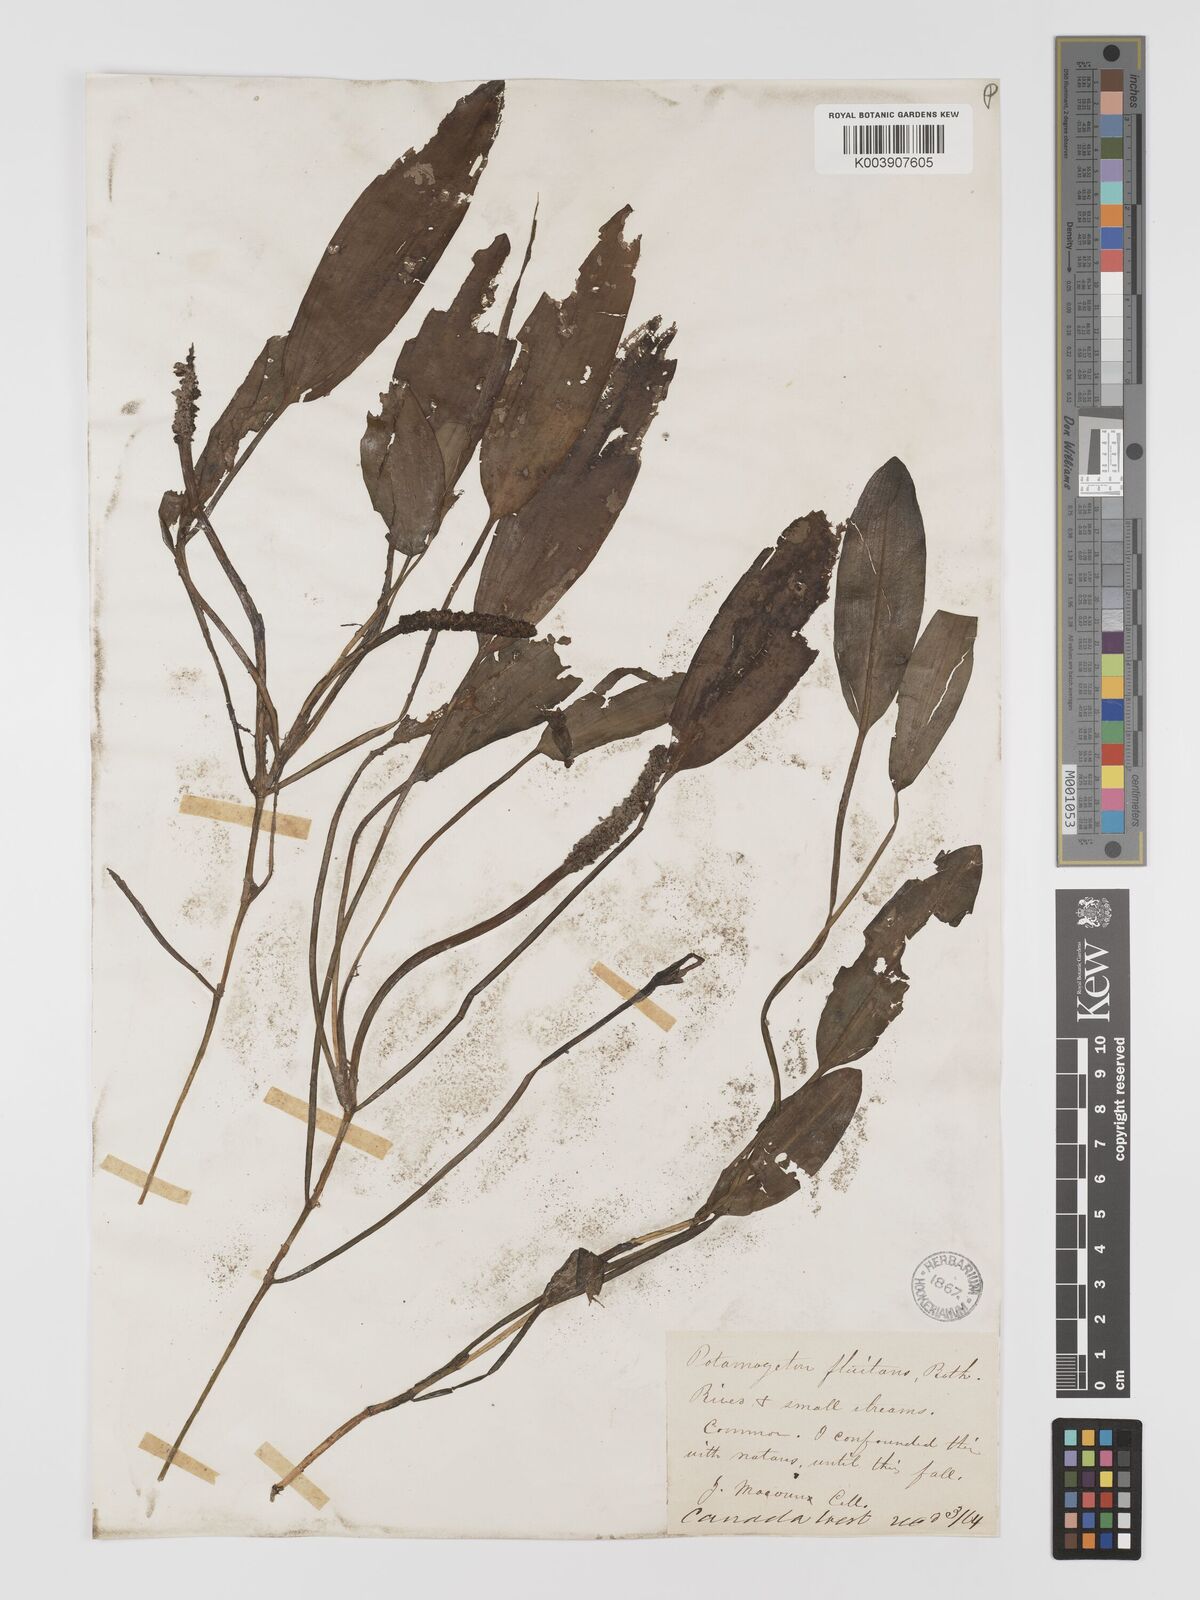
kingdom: Plantae
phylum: Tracheophyta
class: Liliopsida
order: Alismatales
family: Potamogetonaceae
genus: Potamogeton
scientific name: Potamogeton nodosus
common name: Loddon pondweed
